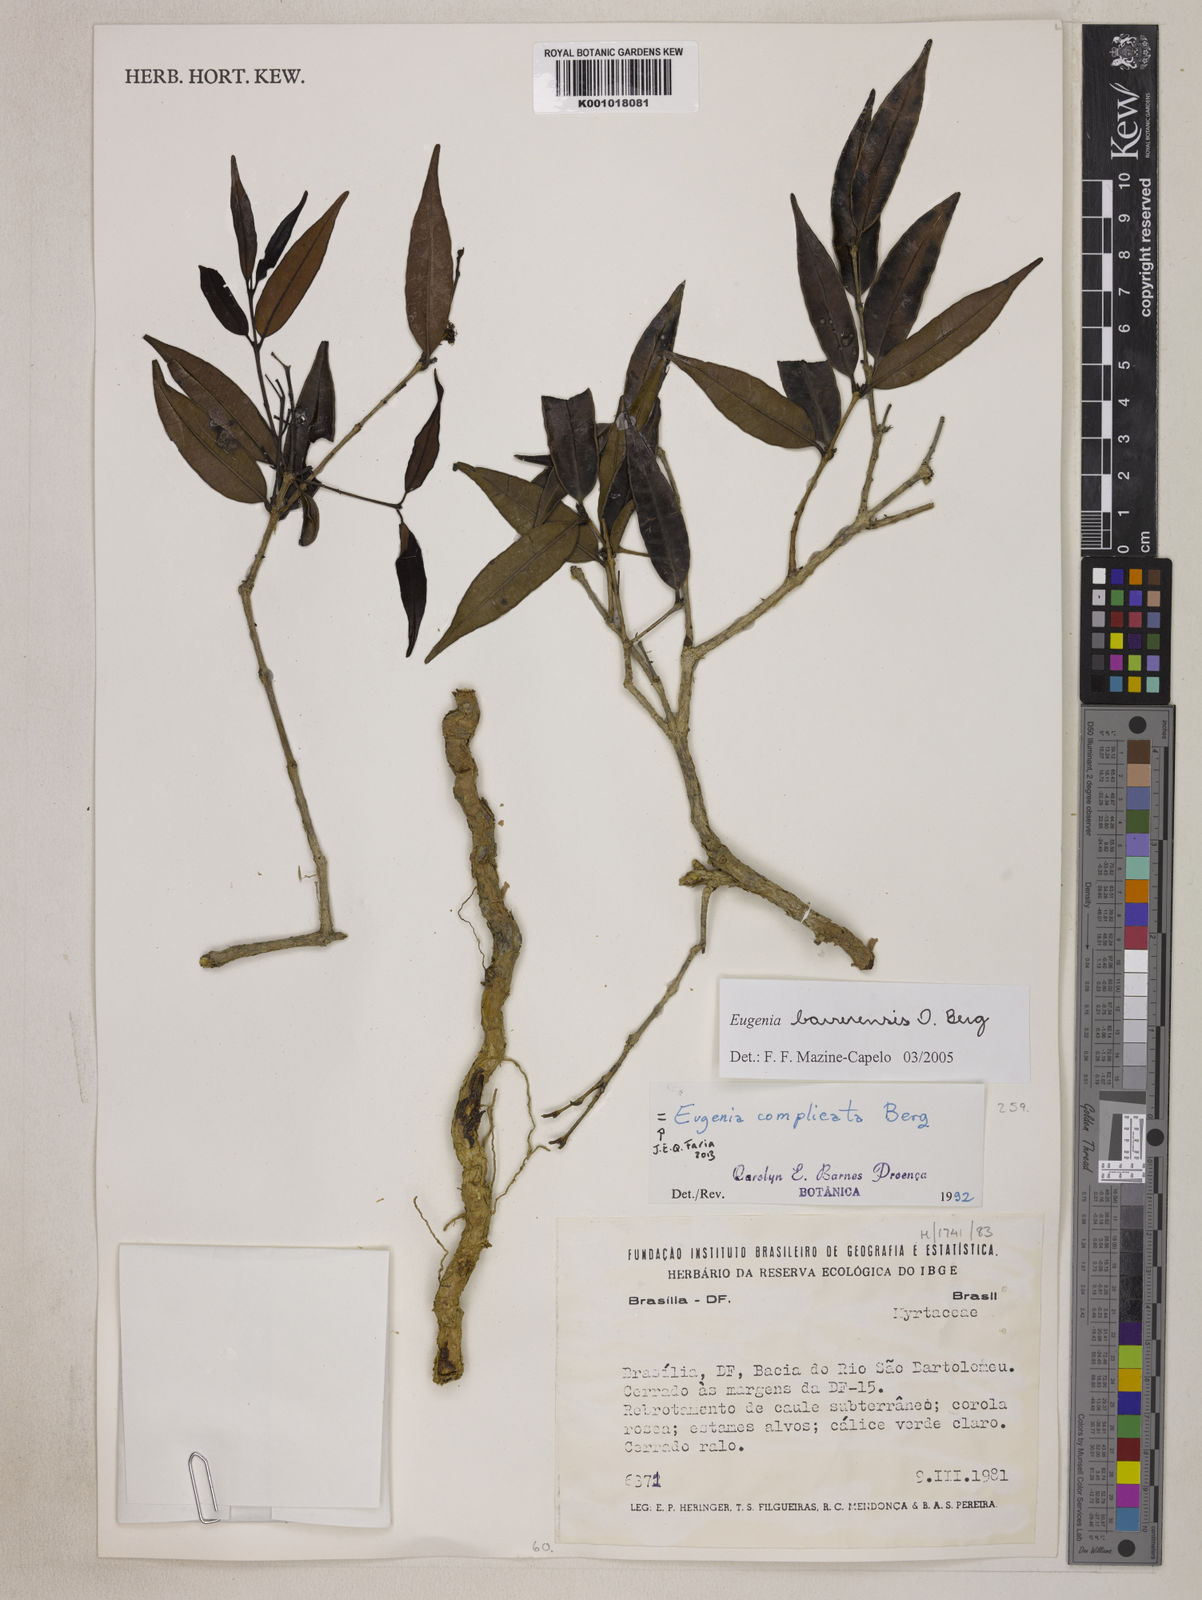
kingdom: Plantae
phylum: Tracheophyta
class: Magnoliopsida
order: Myrtales
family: Myrtaceae
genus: Eugenia
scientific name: Eugenia complicata
